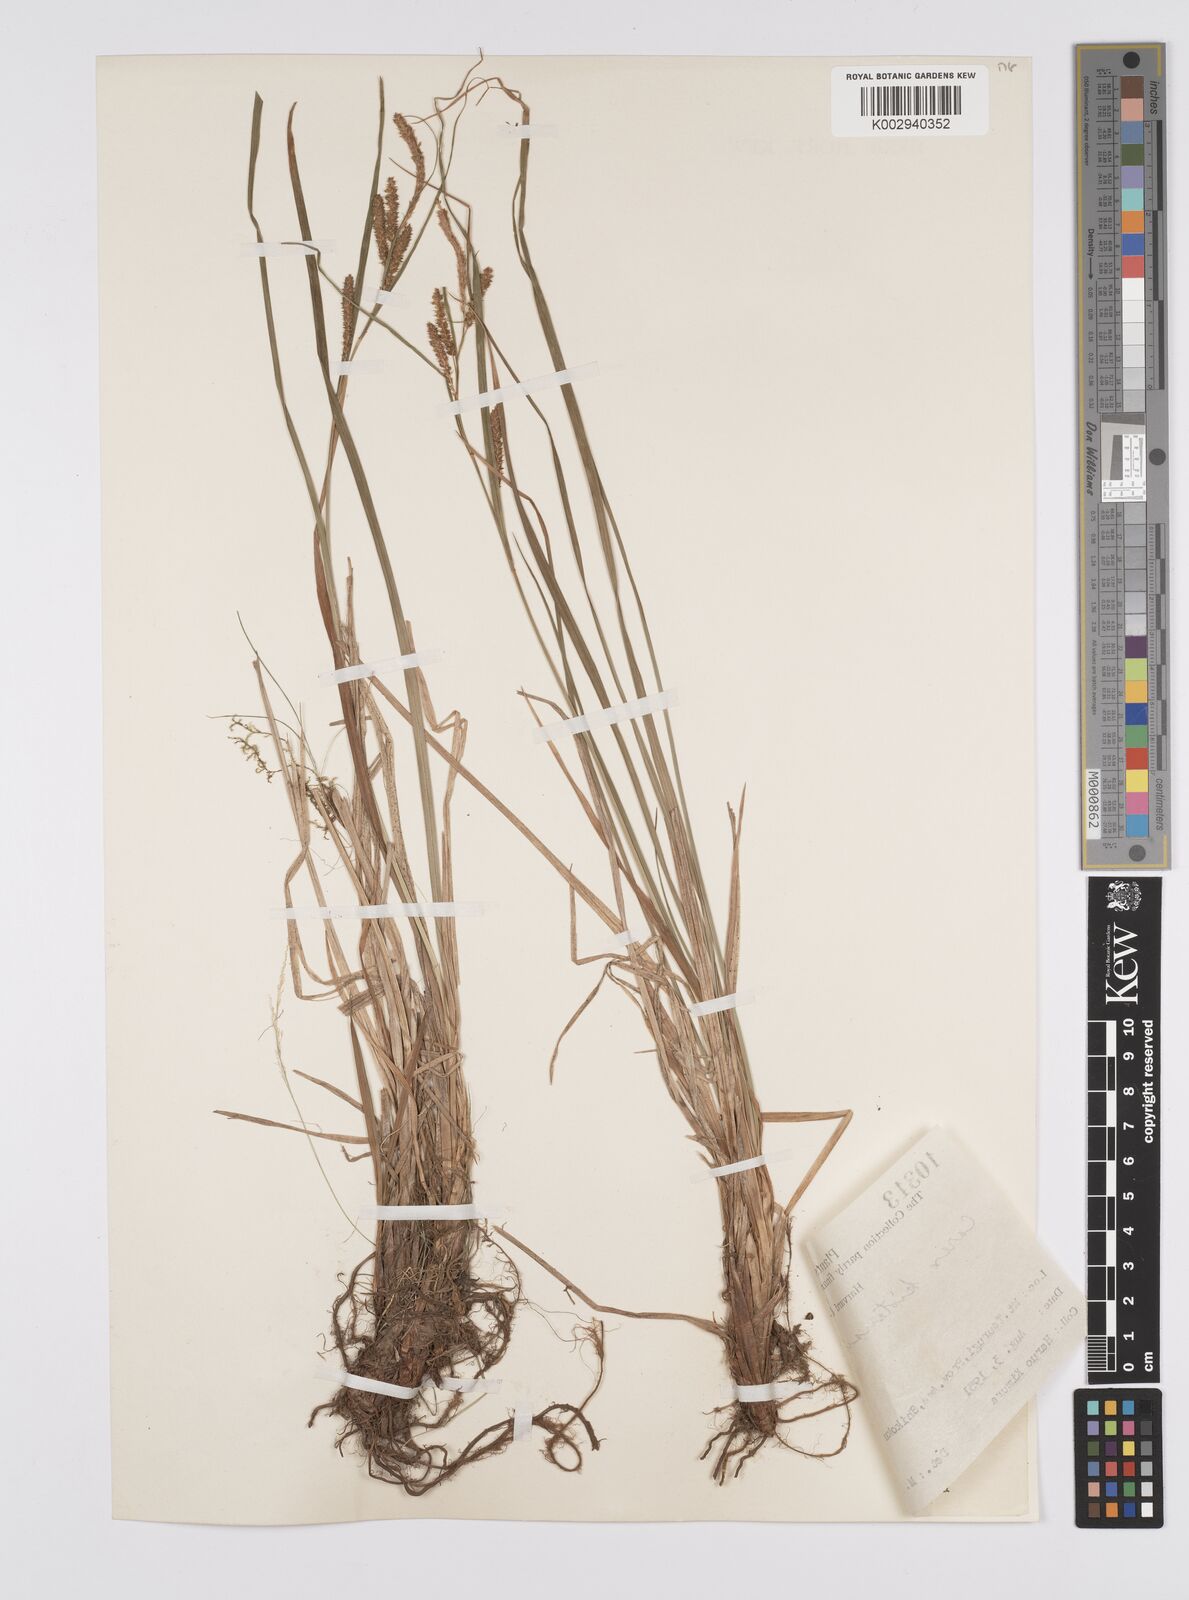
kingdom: Plantae
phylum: Tracheophyta
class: Liliopsida
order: Poales
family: Cyperaceae
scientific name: Cyperaceae
